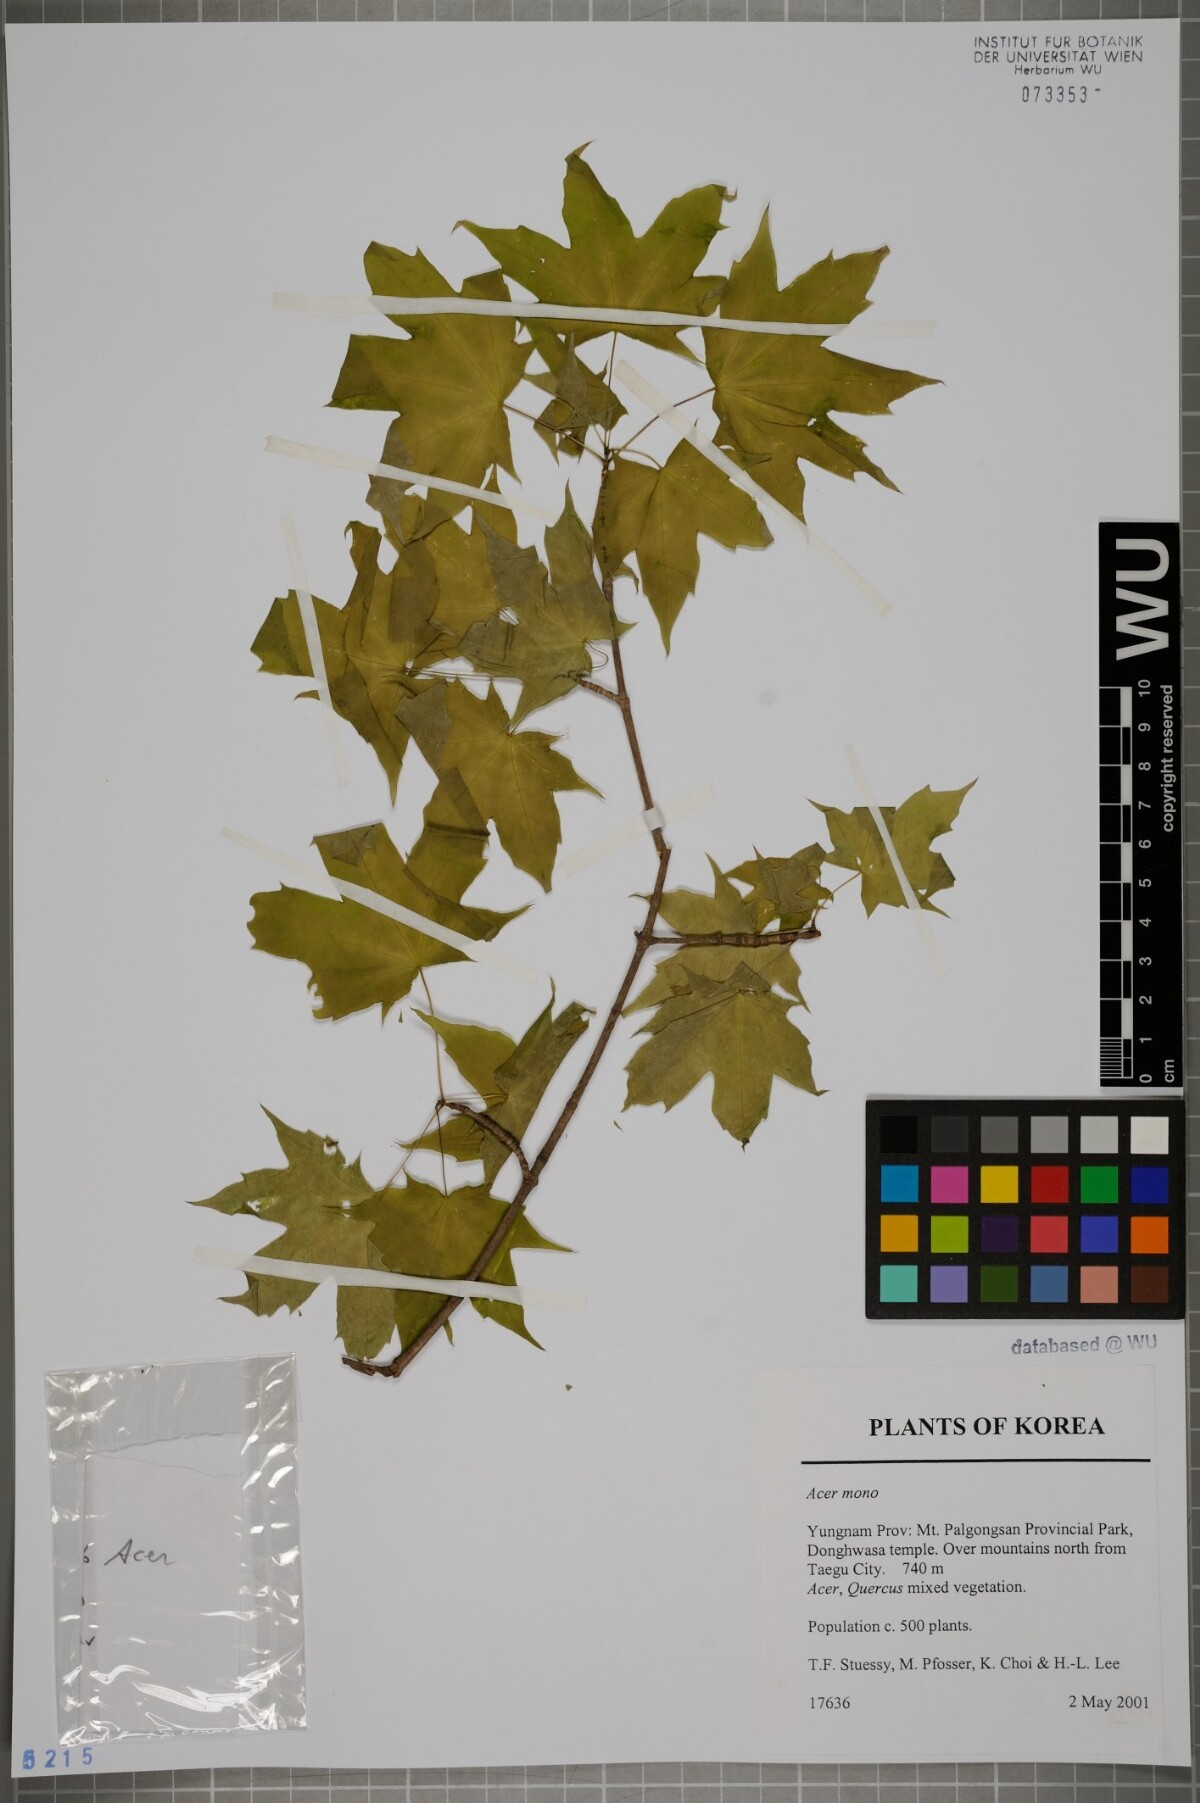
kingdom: Plantae
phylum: Tracheophyta
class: Magnoliopsida
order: Sapindales
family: Sapindaceae
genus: Acer
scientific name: Acer pictum
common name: The painted maple
